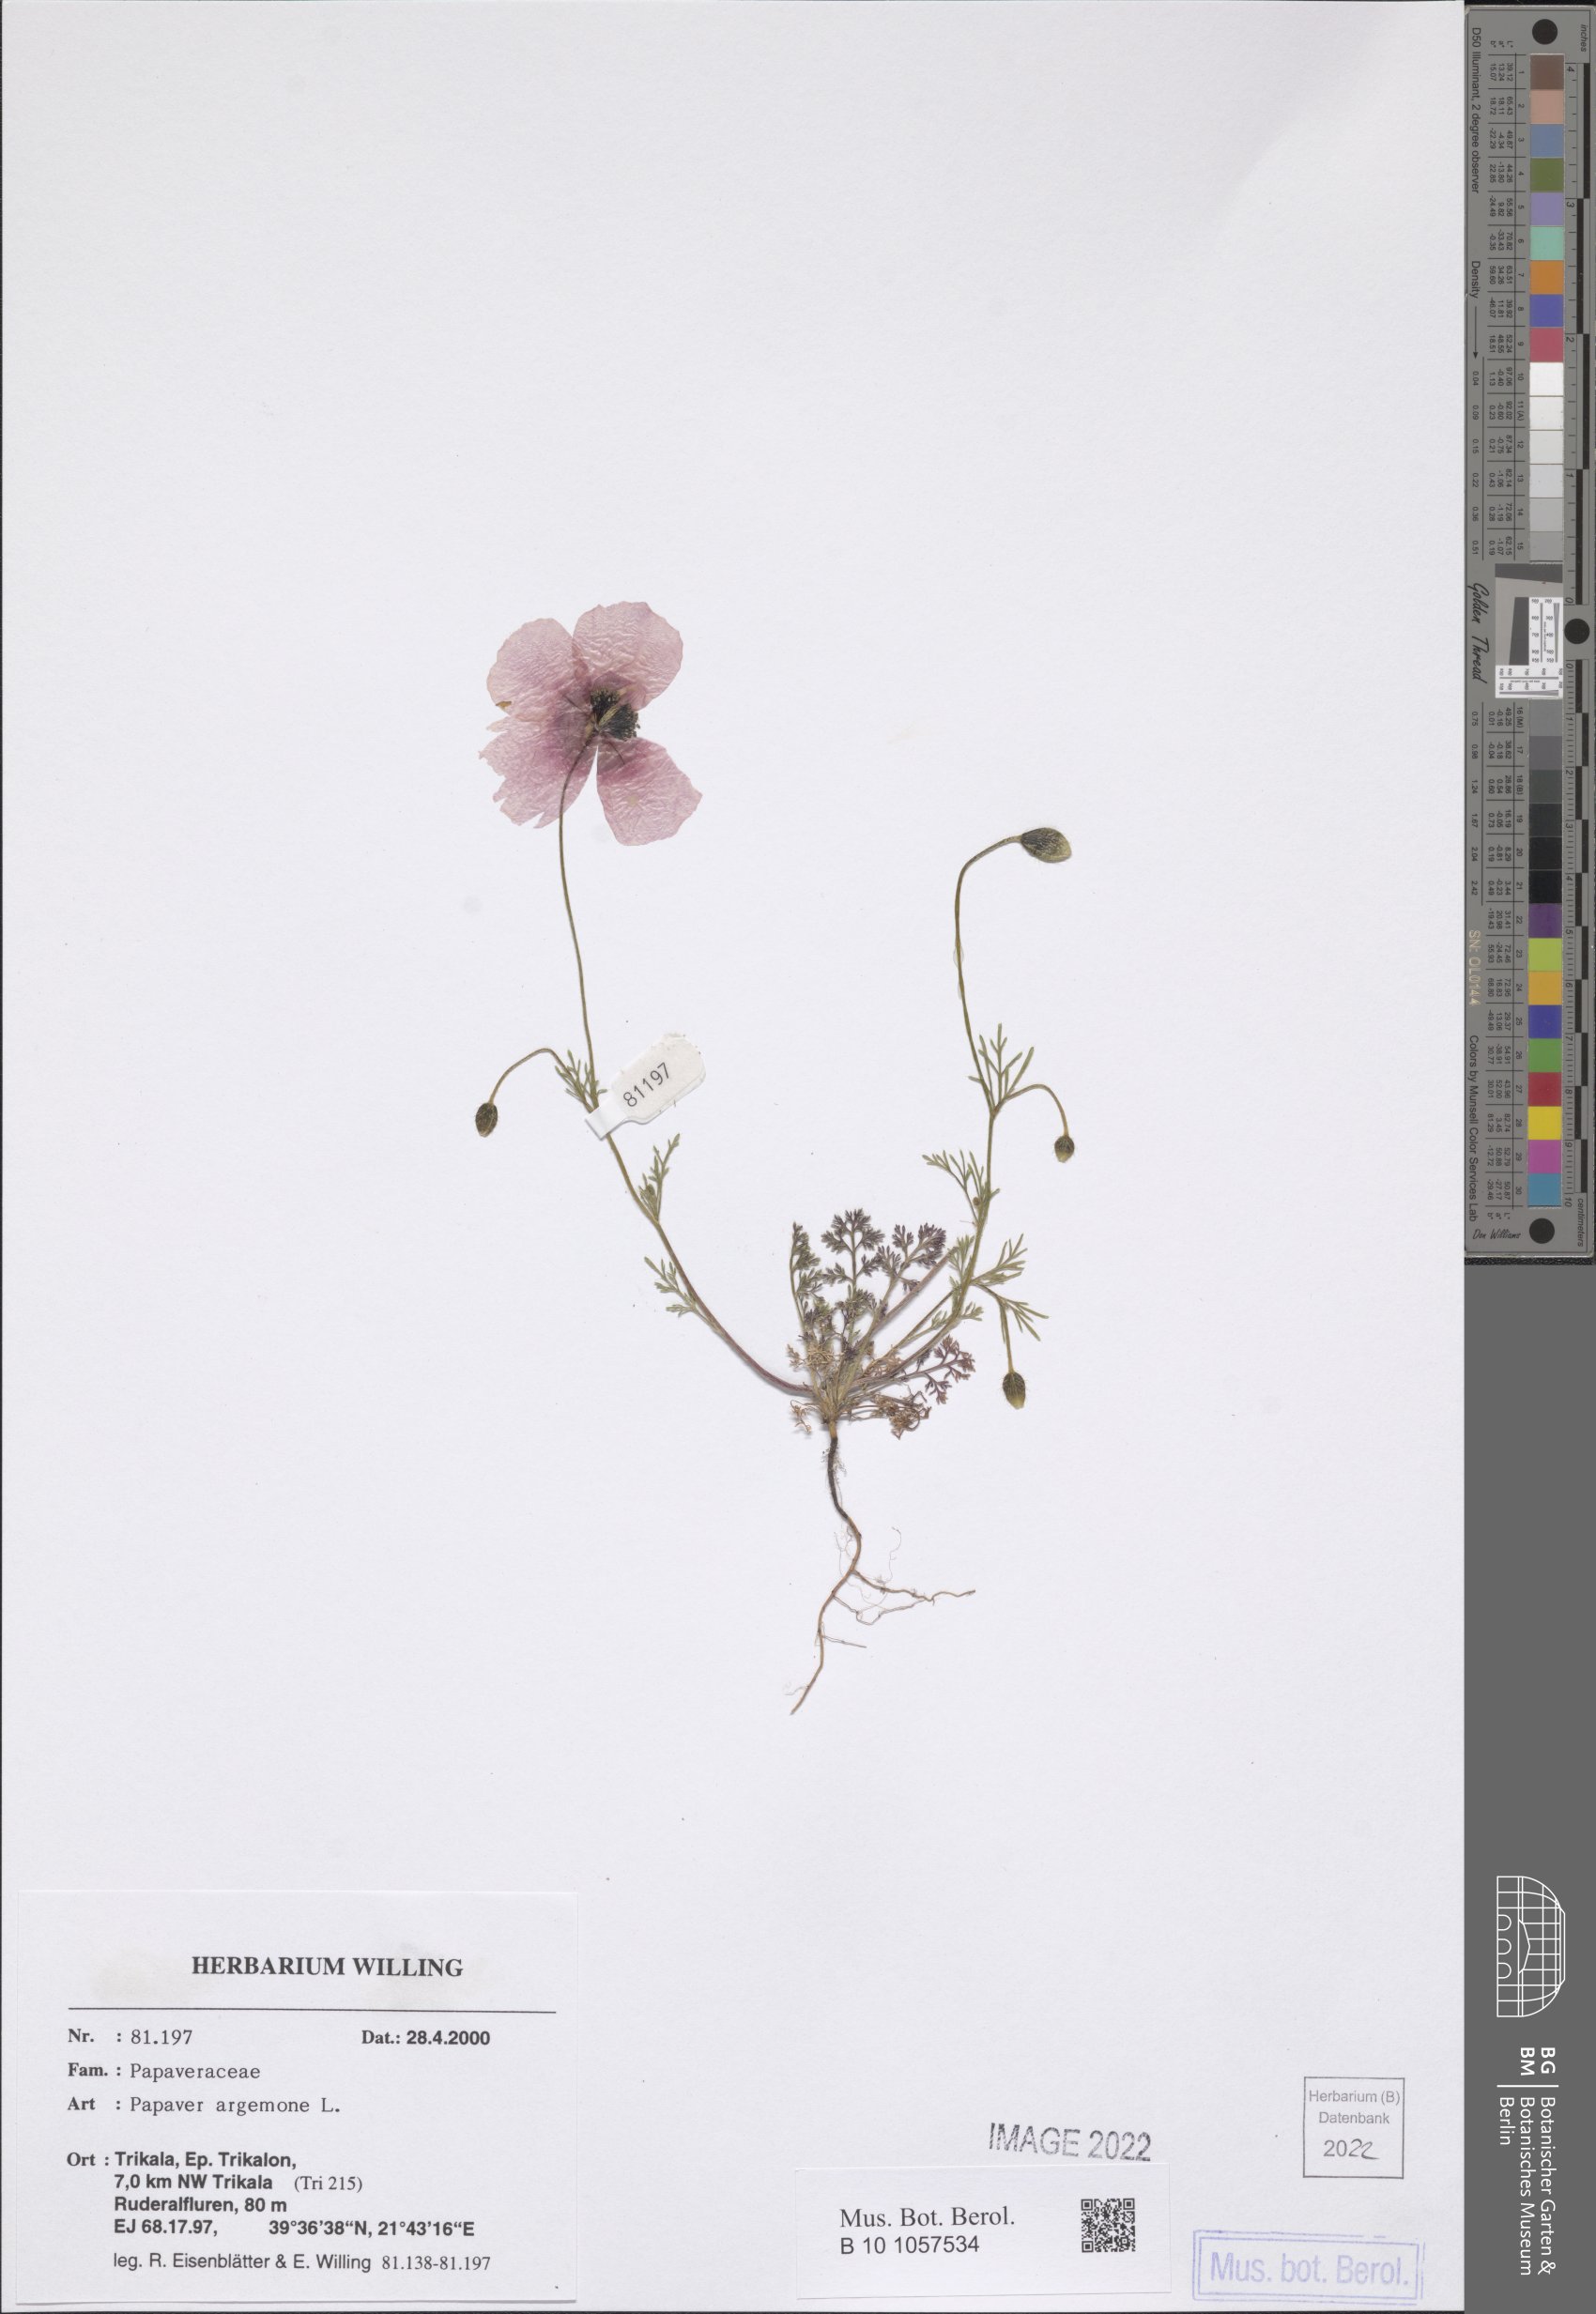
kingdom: Plantae
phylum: Tracheophyta
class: Magnoliopsida
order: Ranunculales
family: Papaveraceae
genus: Roemeria
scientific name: Roemeria argemone
